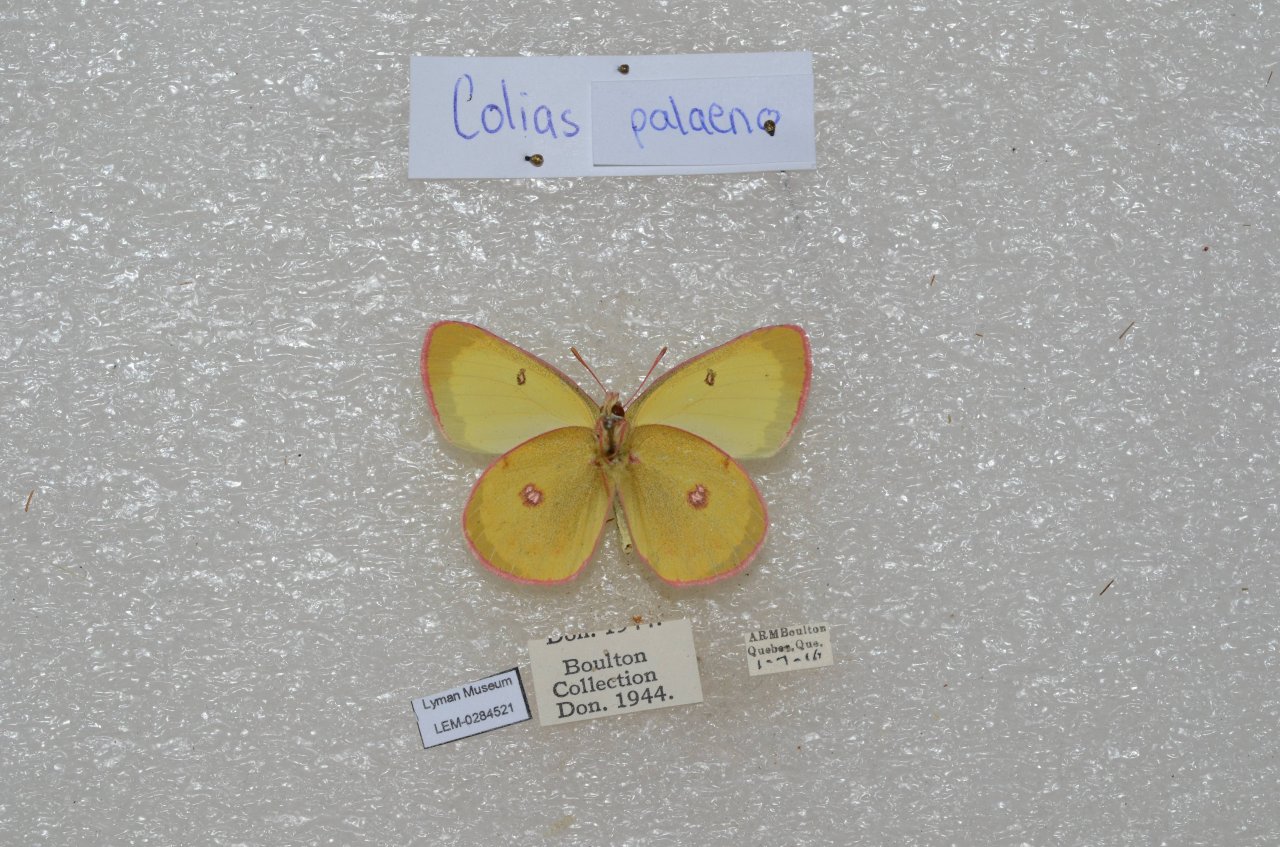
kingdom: Animalia
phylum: Arthropoda
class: Insecta
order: Lepidoptera
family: Pieridae
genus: Colias
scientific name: Colias pelidne
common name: Pelidne Sulphur
